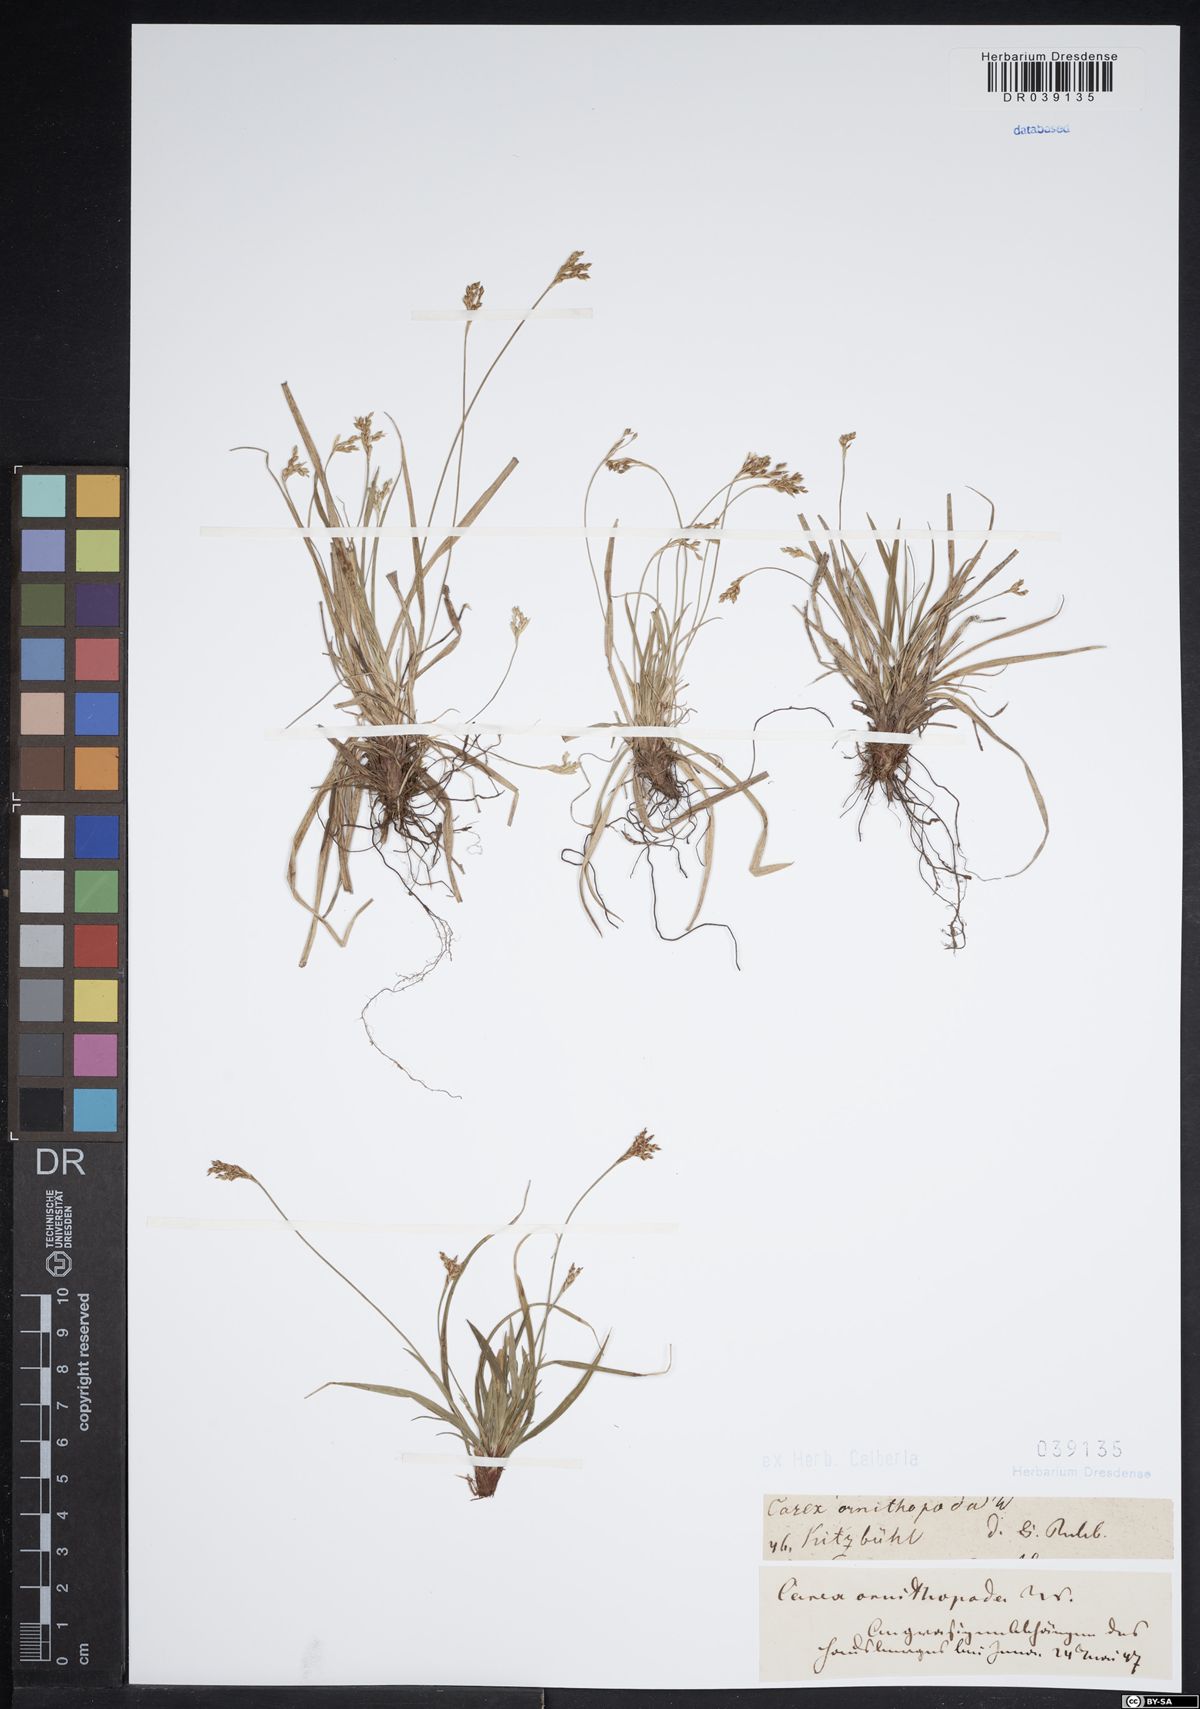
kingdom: Plantae
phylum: Tracheophyta
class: Liliopsida
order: Poales
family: Cyperaceae
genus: Carex
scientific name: Carex ornithopoda
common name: Bird's-foot sedge
